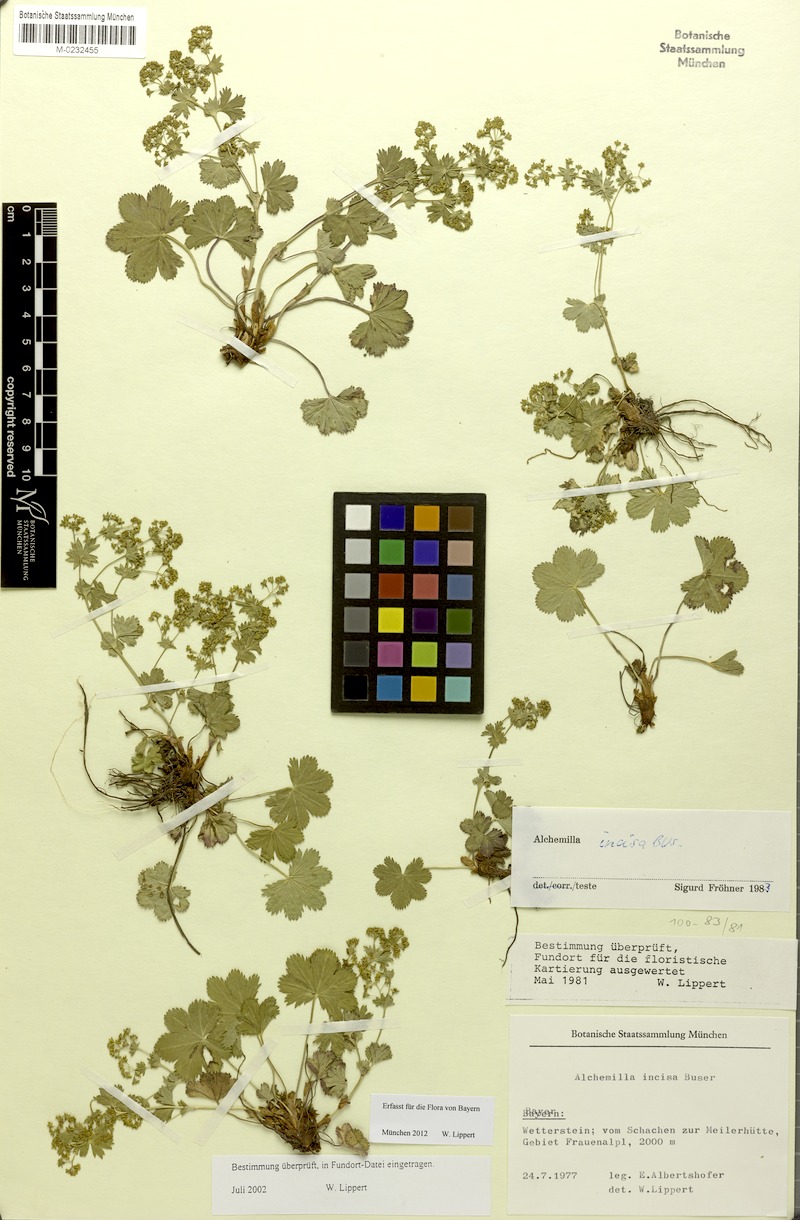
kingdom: Plantae
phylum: Tracheophyta
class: Magnoliopsida
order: Rosales
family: Rosaceae
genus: Alchemilla
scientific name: Alchemilla incisa
